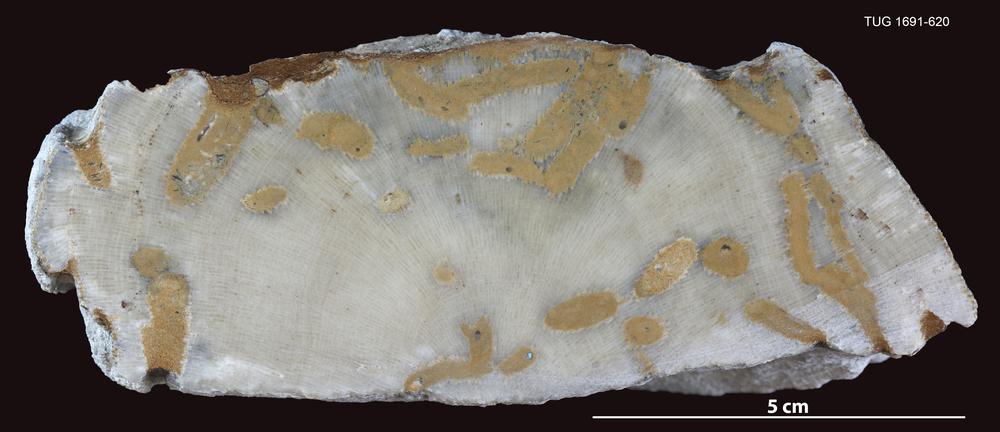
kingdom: Animalia
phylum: Bryozoa
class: Stenolaemata
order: Trepostomatida
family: Diplotrypidae
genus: Diplotrypa
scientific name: Diplotrypa
